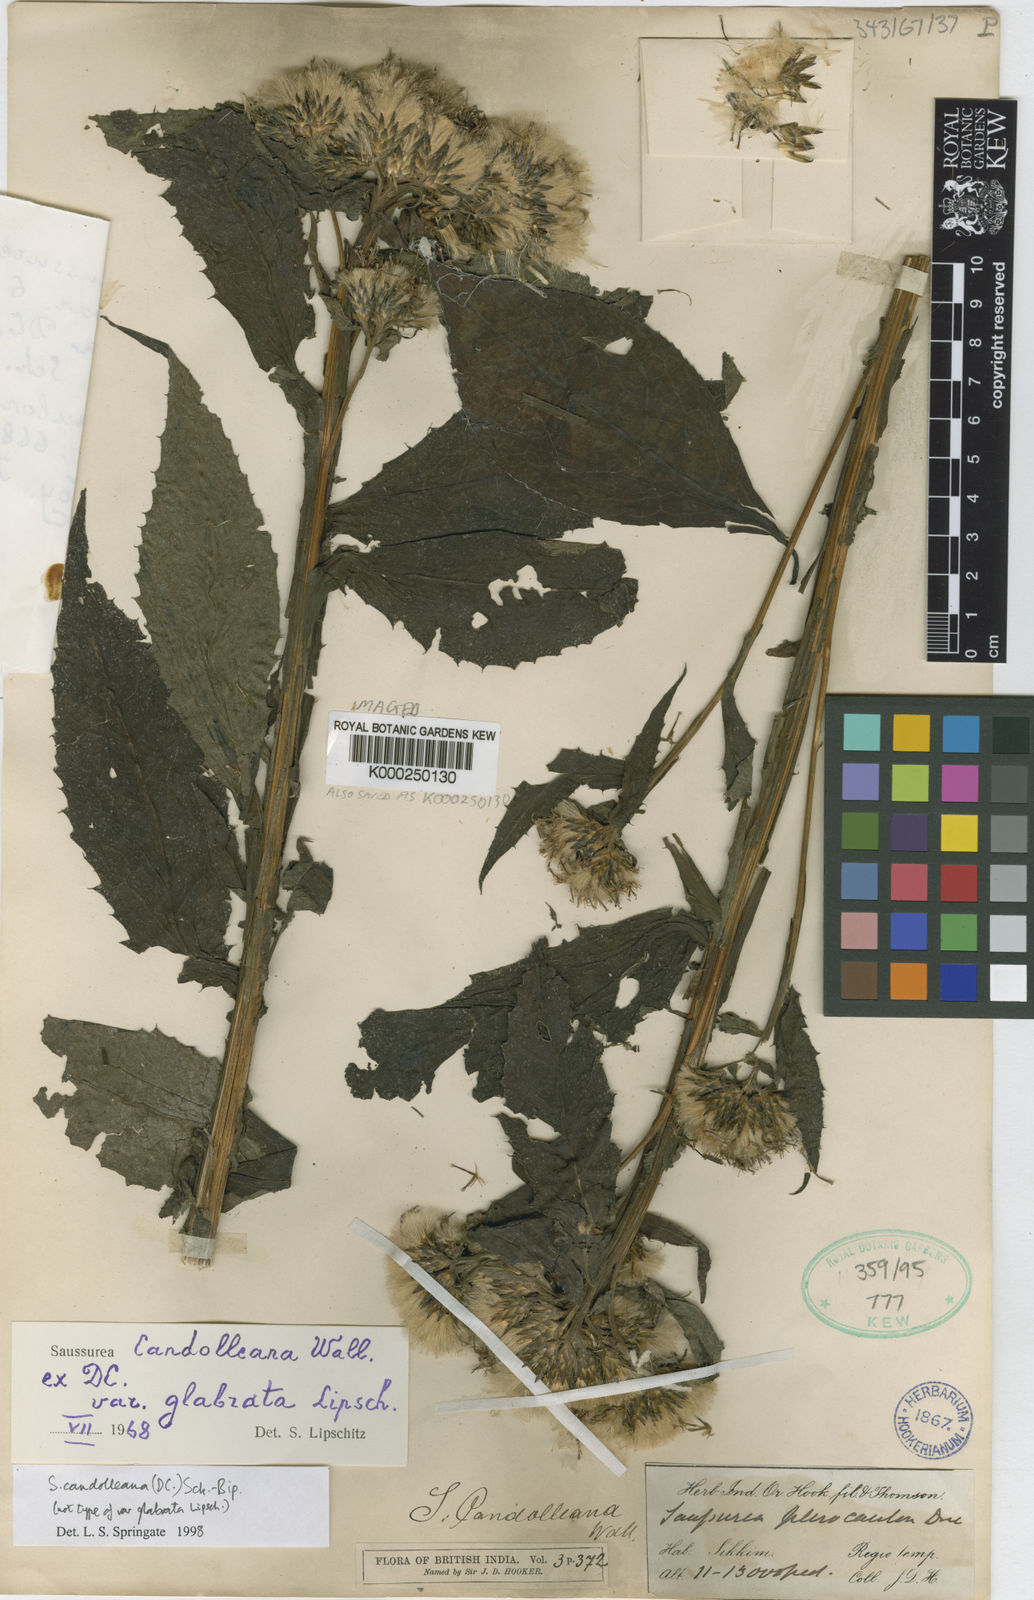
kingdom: Plantae
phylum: Tracheophyta
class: Magnoliopsida
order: Asterales
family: Asteraceae
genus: Saussurea
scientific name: Saussurea candolleana
